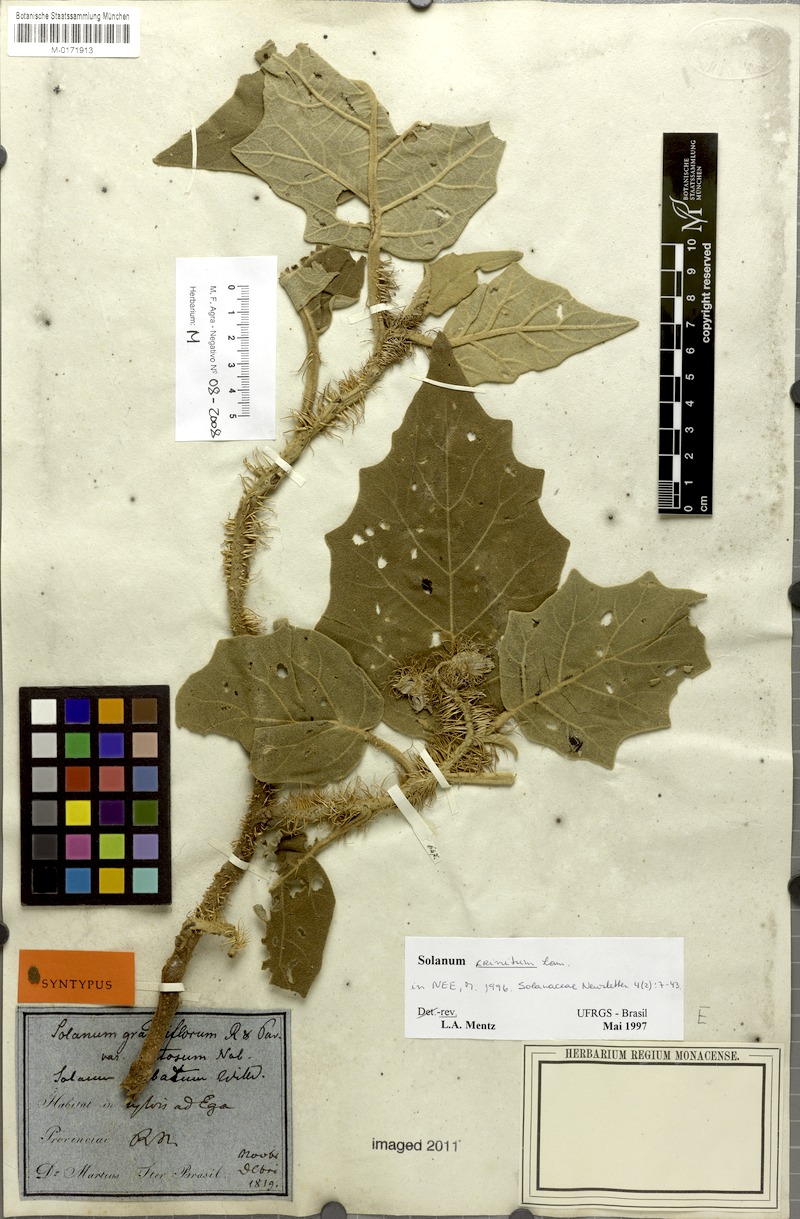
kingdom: Plantae
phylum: Tracheophyta
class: Magnoliopsida
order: Solanales
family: Solanaceae
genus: Solanum
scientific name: Solanum crinitum
